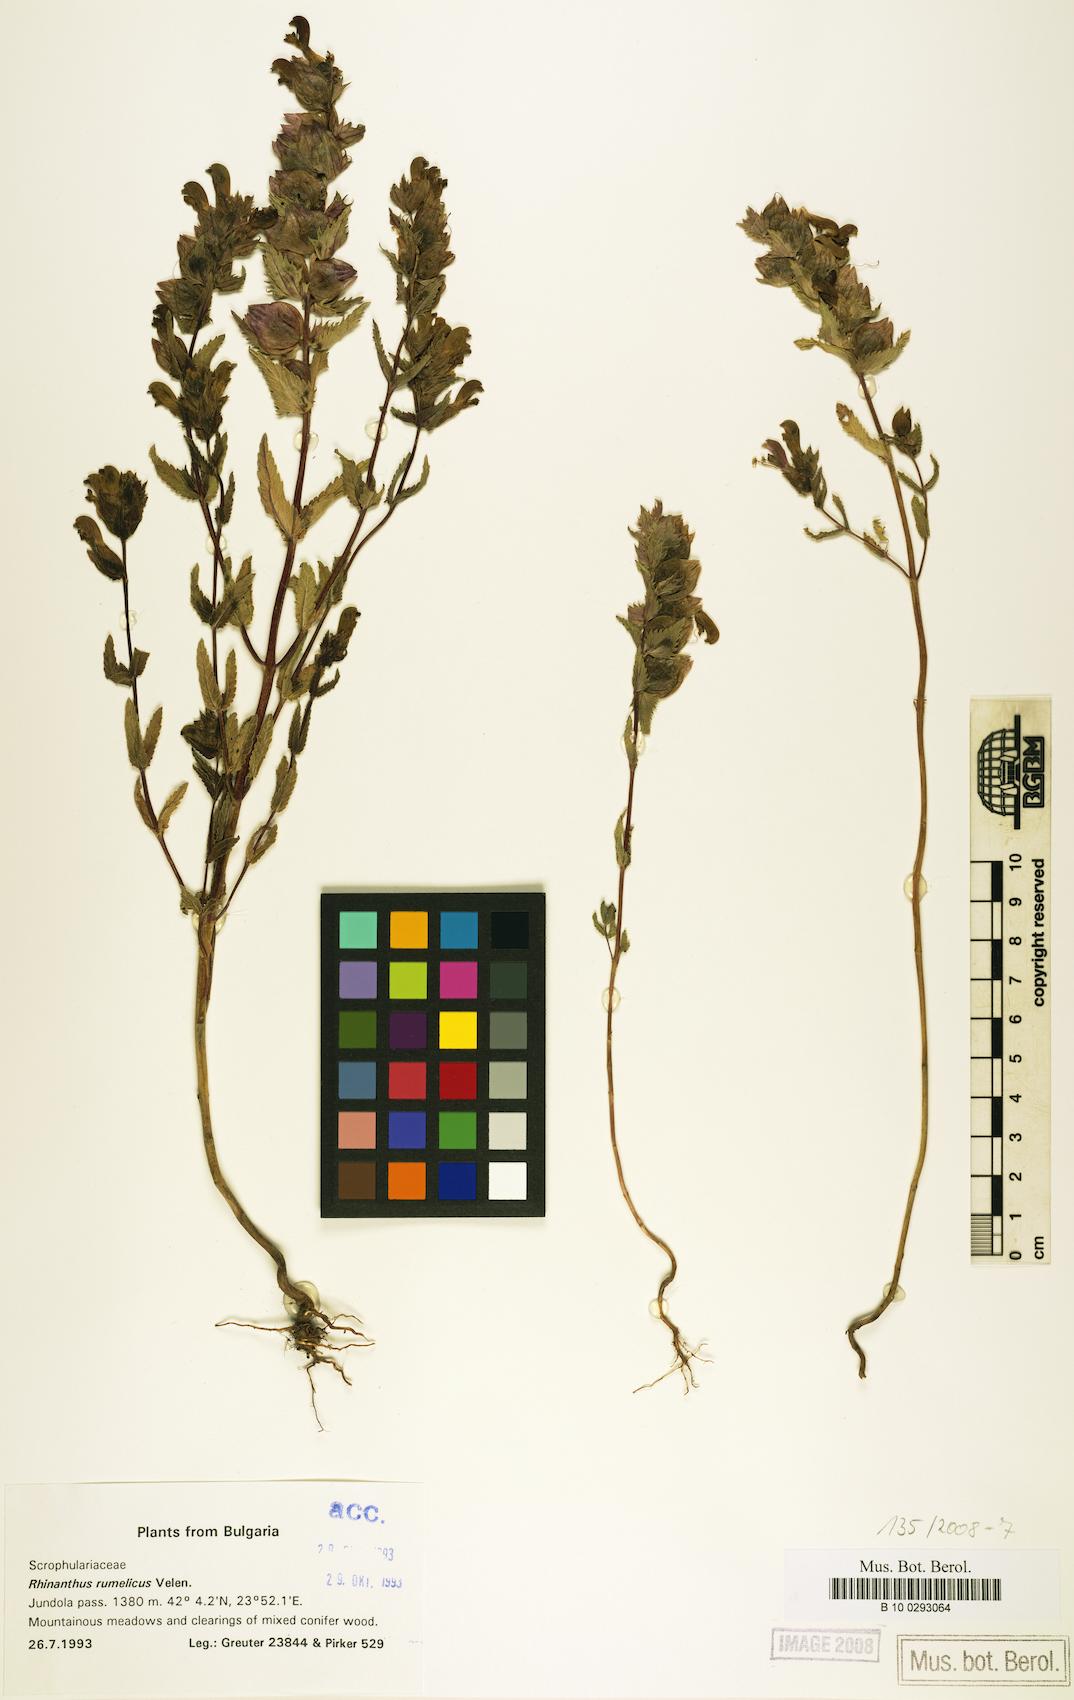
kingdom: Plantae
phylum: Tracheophyta
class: Magnoliopsida
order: Lamiales
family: Orobanchaceae
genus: Rhinanthus
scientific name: Rhinanthus rumelicus
